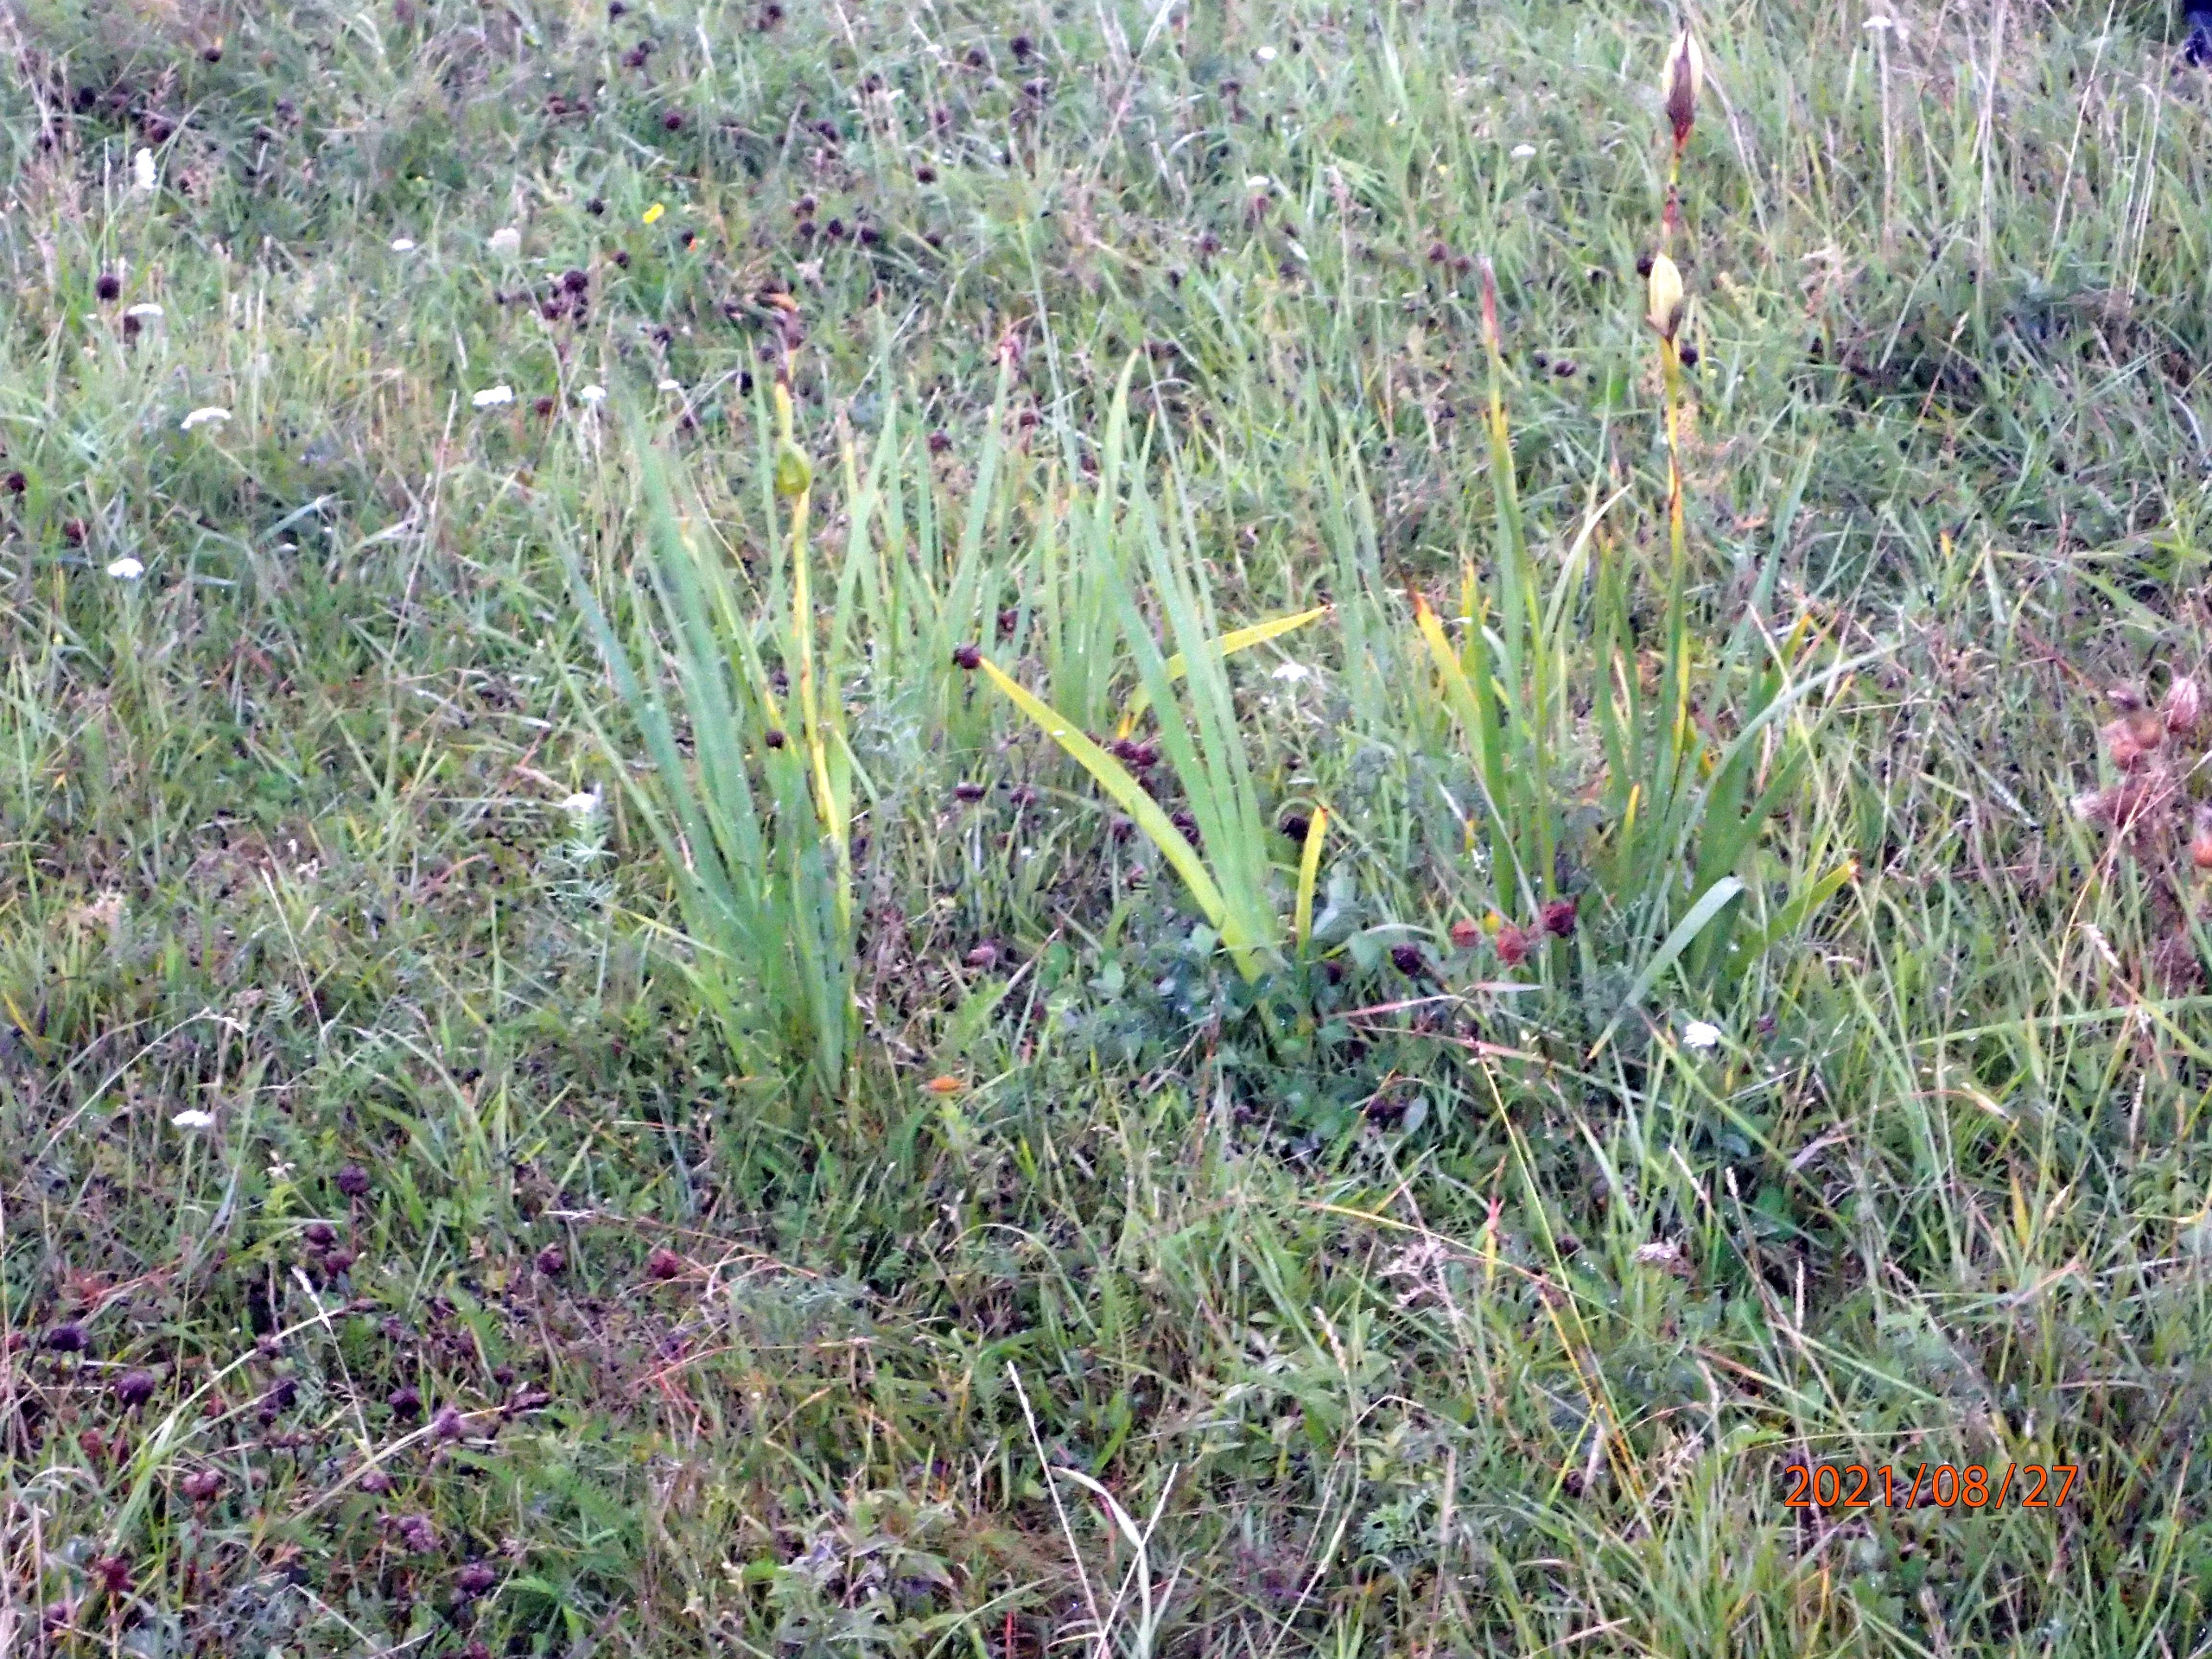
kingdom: Plantae
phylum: Tracheophyta
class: Liliopsida
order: Asparagales
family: Iridaceae
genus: Iris
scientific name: Iris spuria
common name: Blå iris
